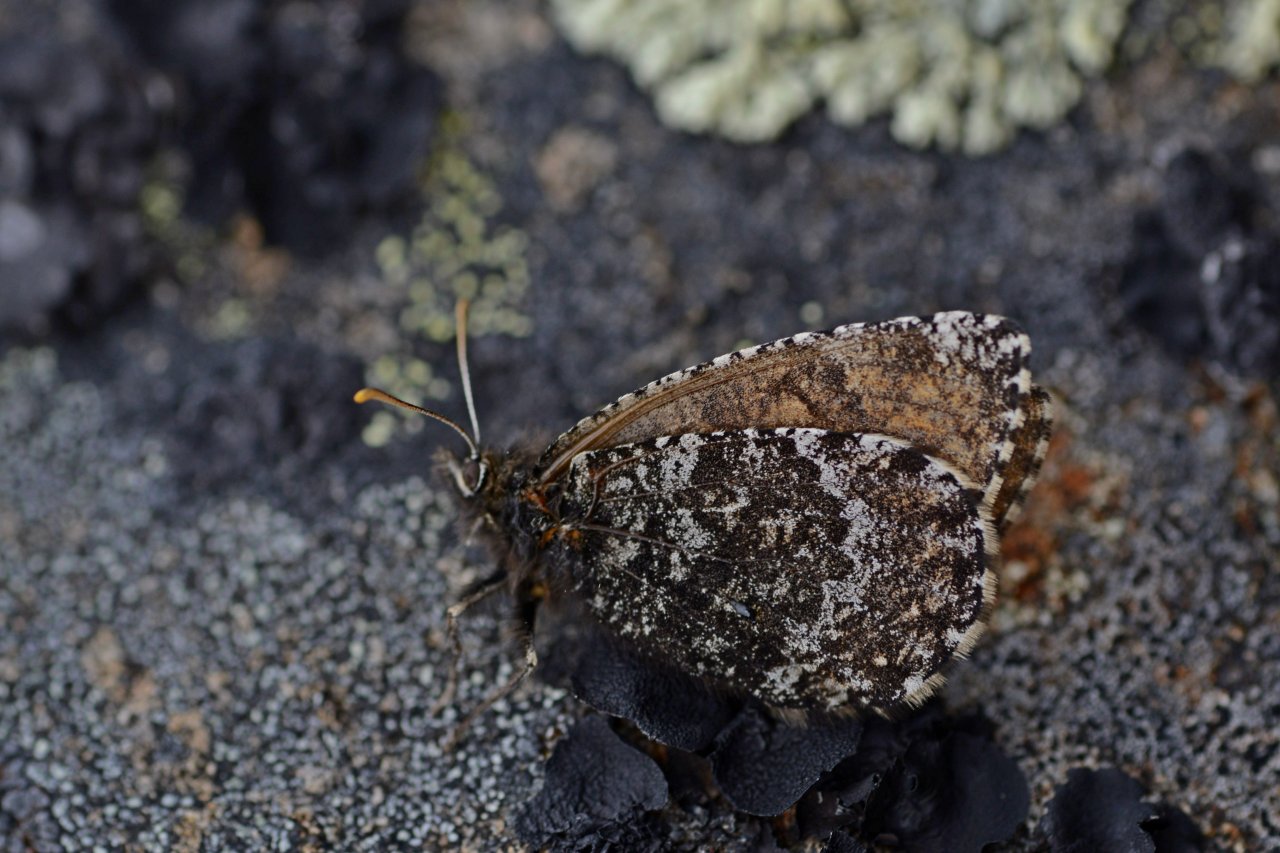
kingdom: Animalia
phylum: Arthropoda
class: Insecta
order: Lepidoptera
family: Nymphalidae
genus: Oeneis
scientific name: Oeneis melissa
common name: Melissa Arctic
